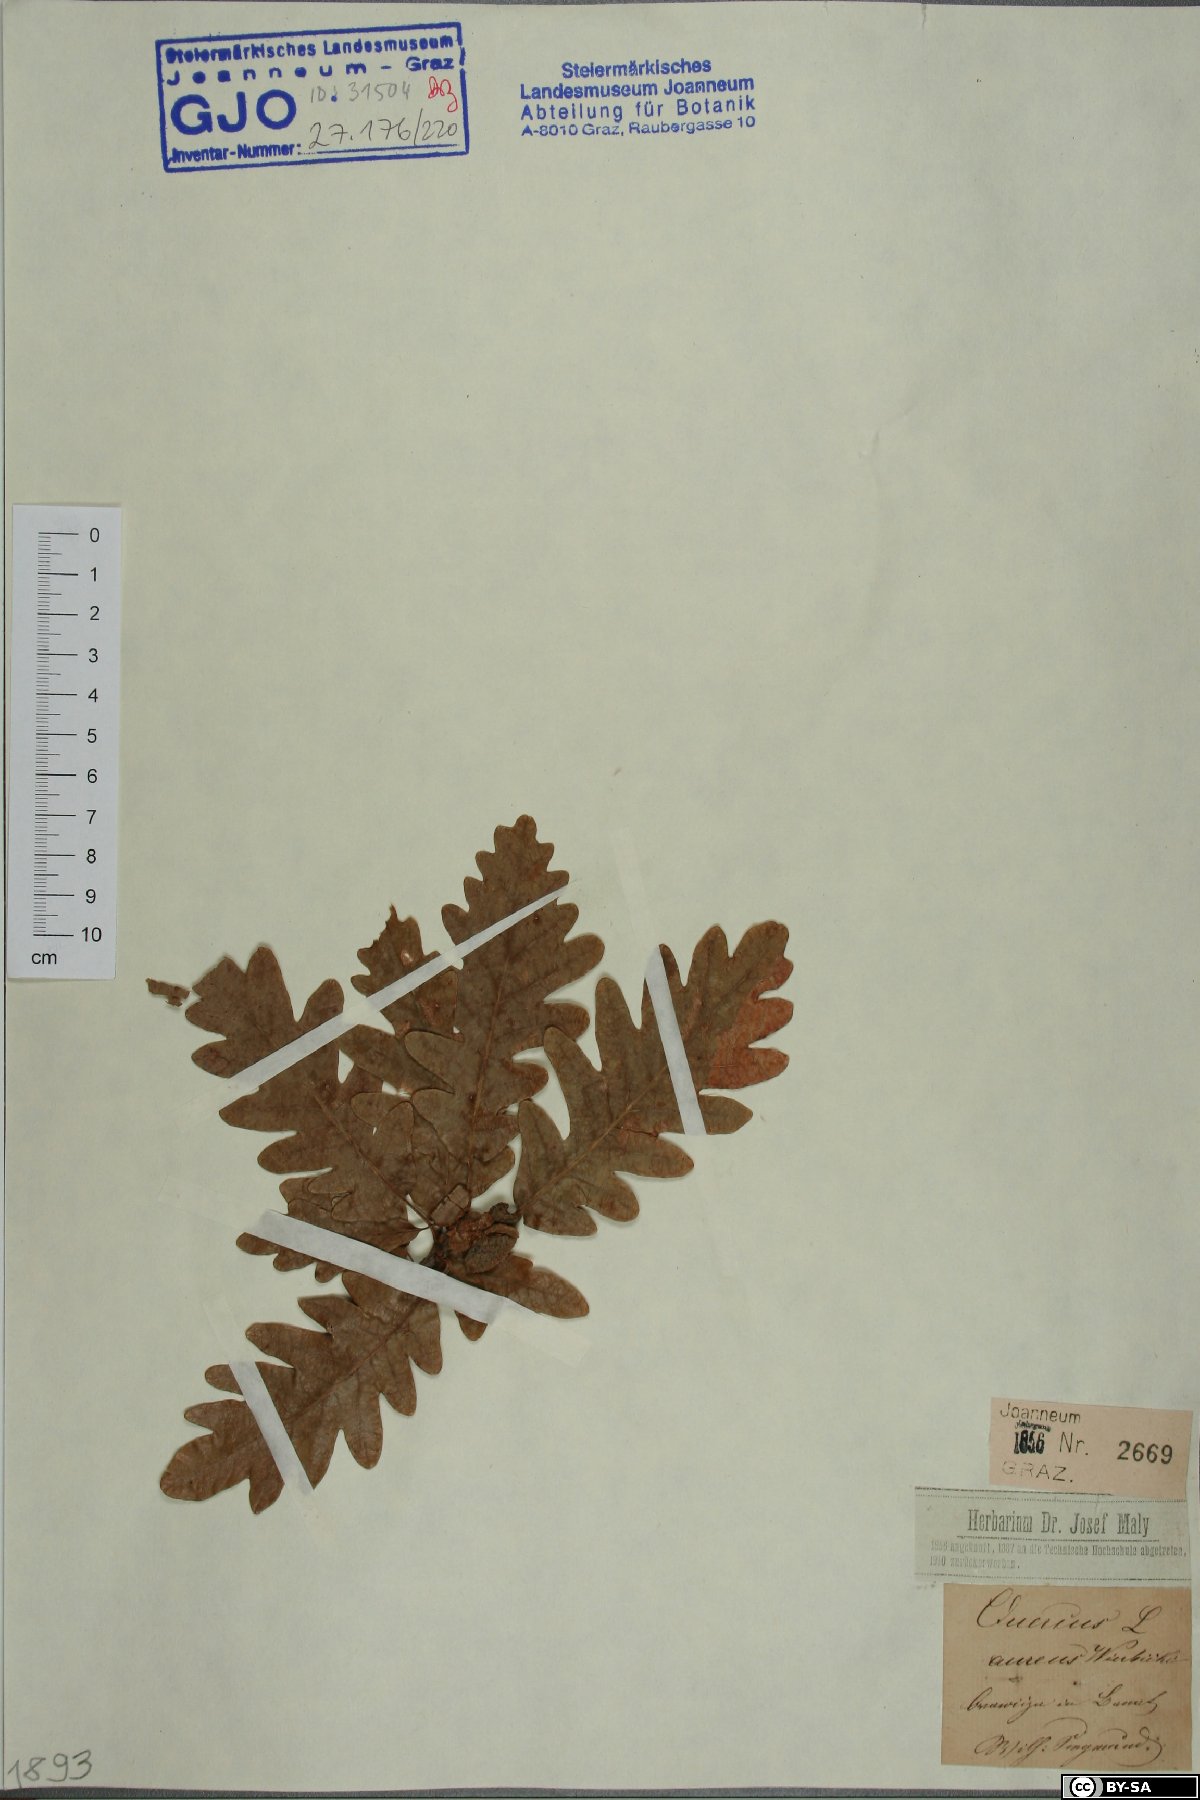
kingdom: Plantae
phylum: Tracheophyta
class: Magnoliopsida
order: Fagales
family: Fagaceae
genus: Quercus
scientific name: Quercus dalechampii
